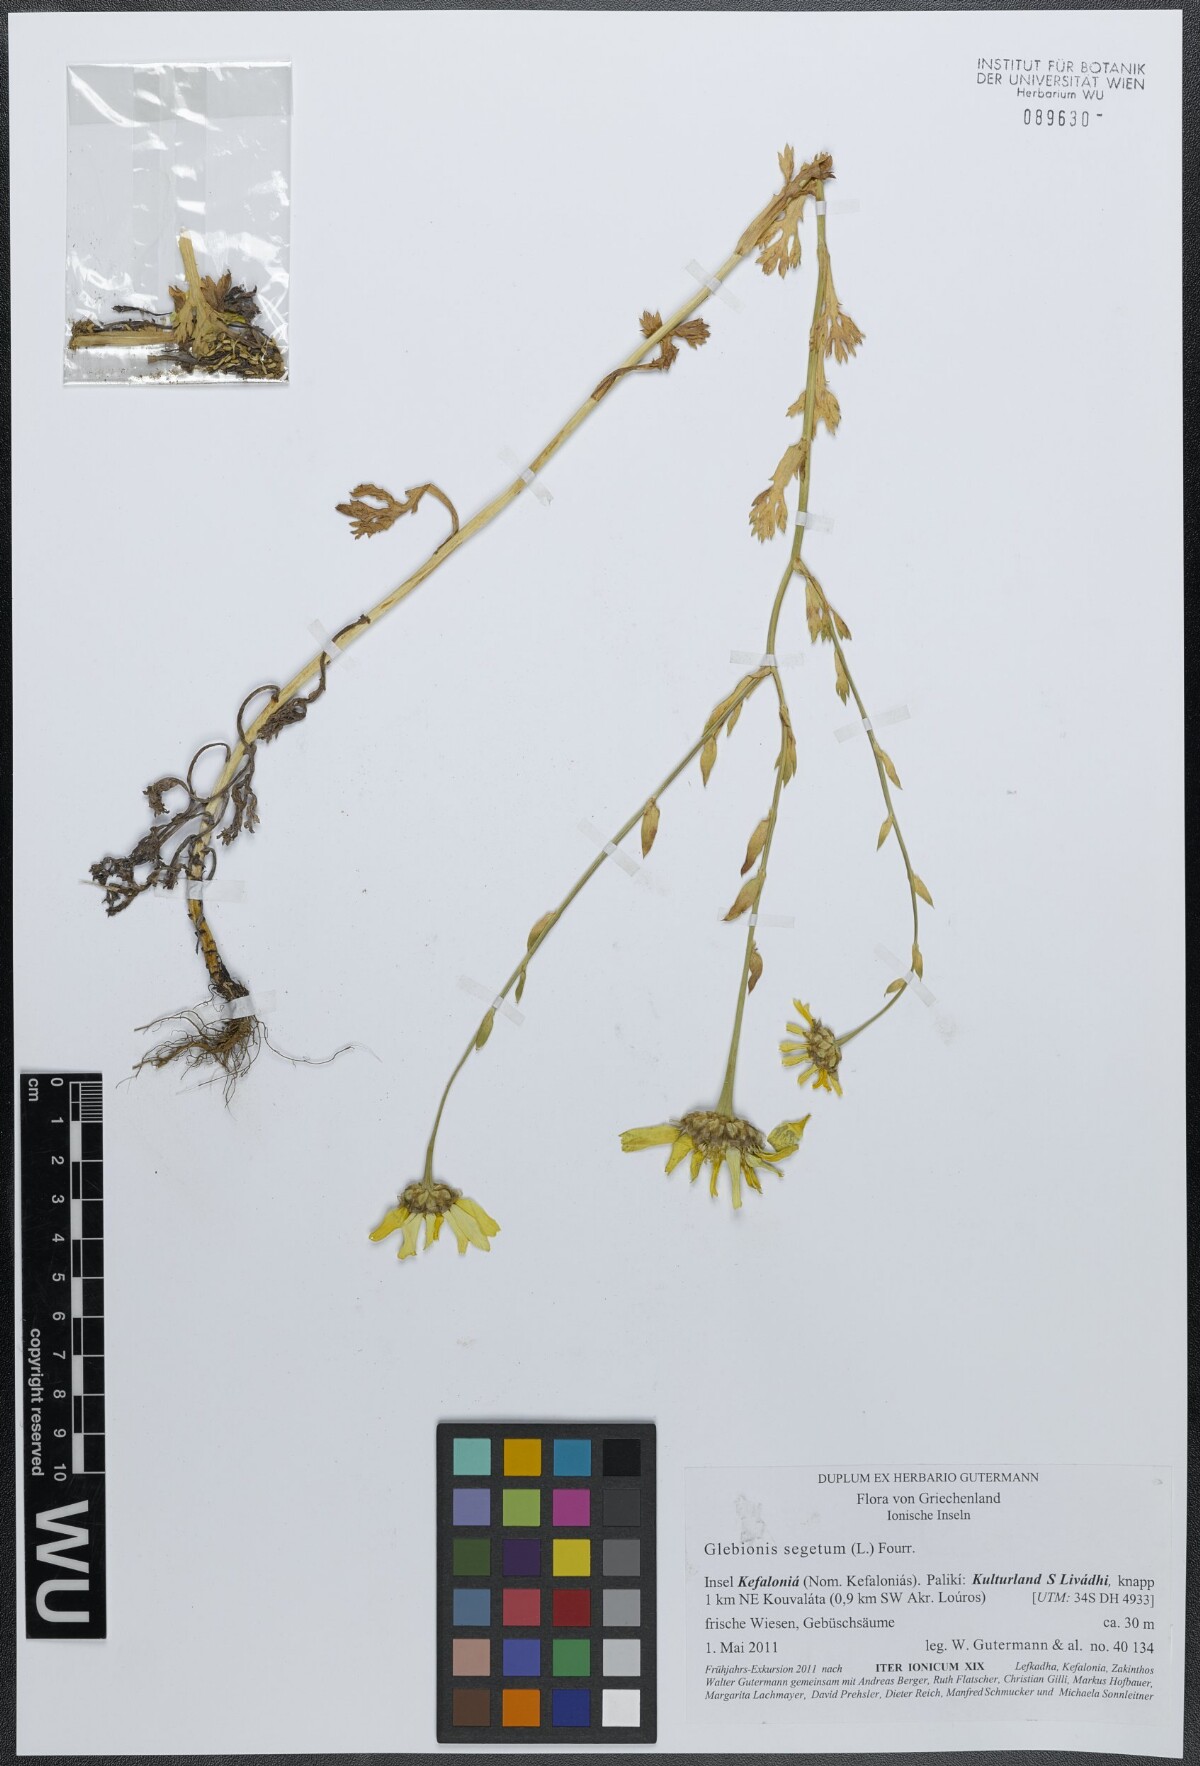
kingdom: Plantae
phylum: Tracheophyta
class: Magnoliopsida
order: Asterales
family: Asteraceae
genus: Glebionis
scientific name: Glebionis segetum
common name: Corndaisy
